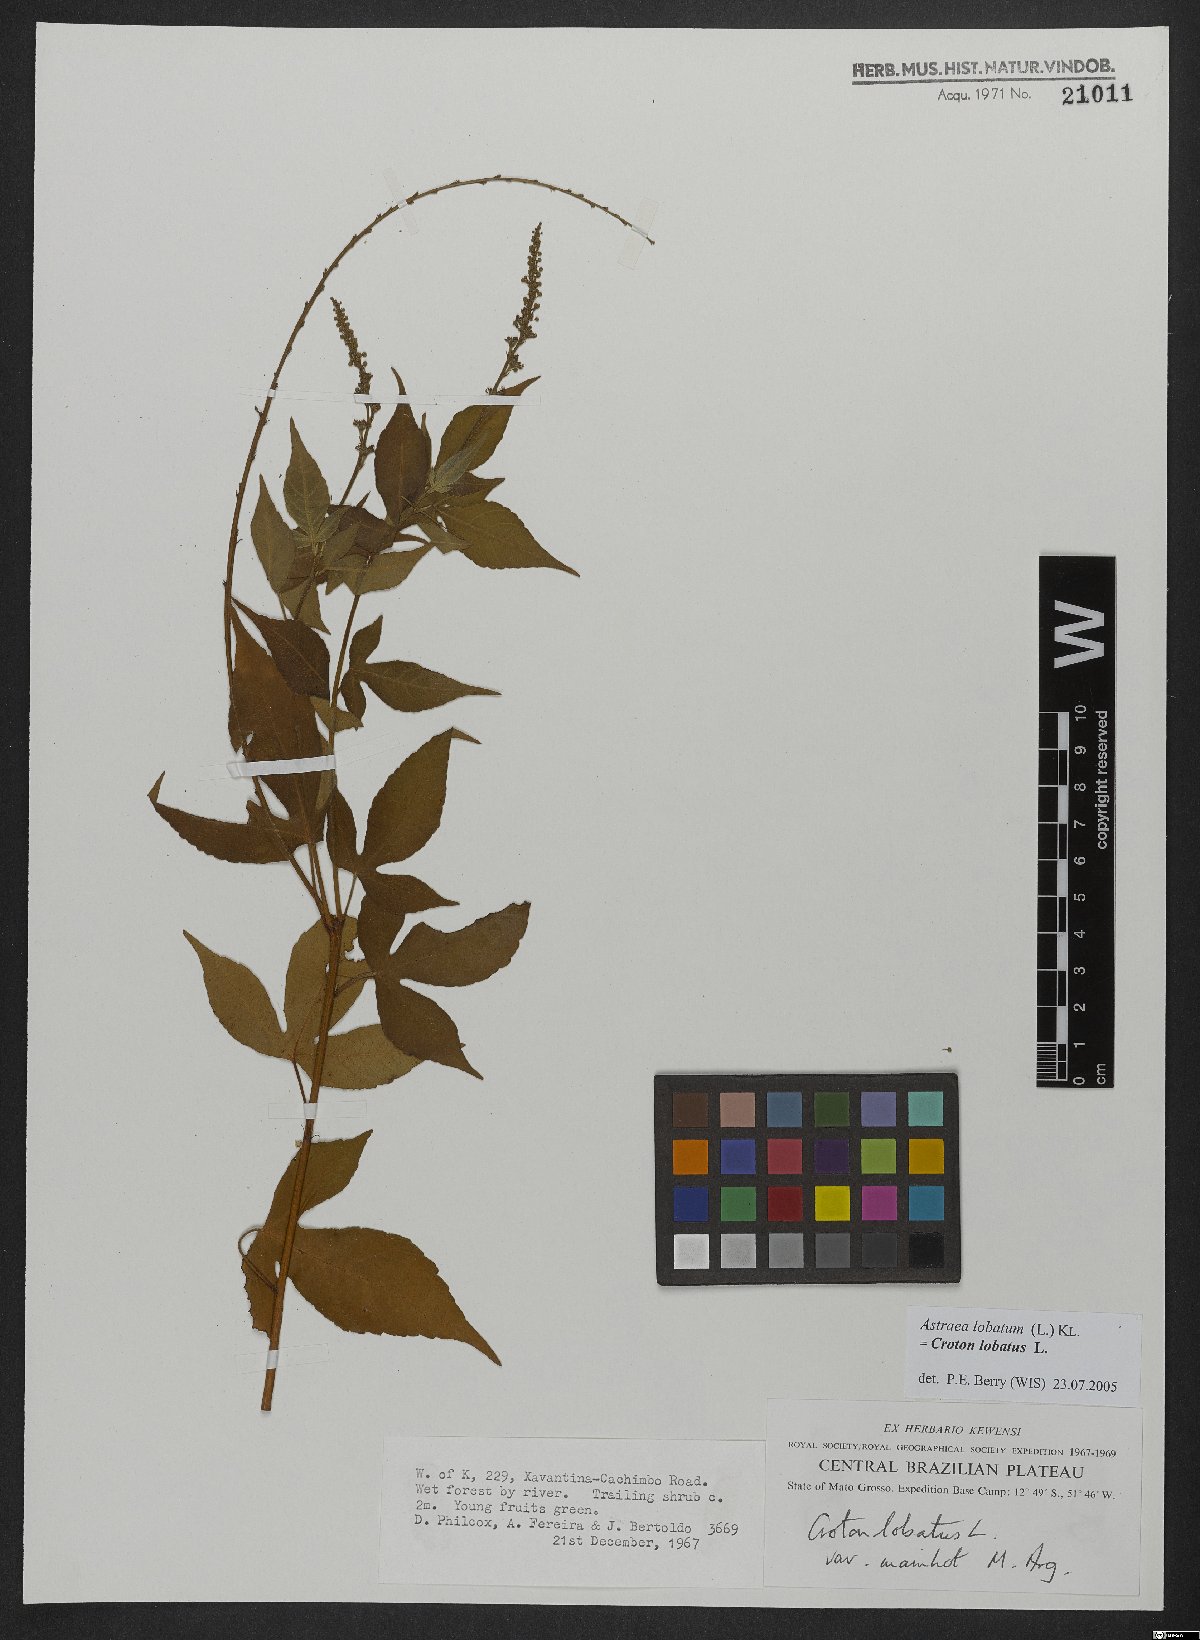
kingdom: Plantae
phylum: Tracheophyta
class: Magnoliopsida
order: Malpighiales
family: Euphorbiaceae
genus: Croton
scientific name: Croton lobatus
